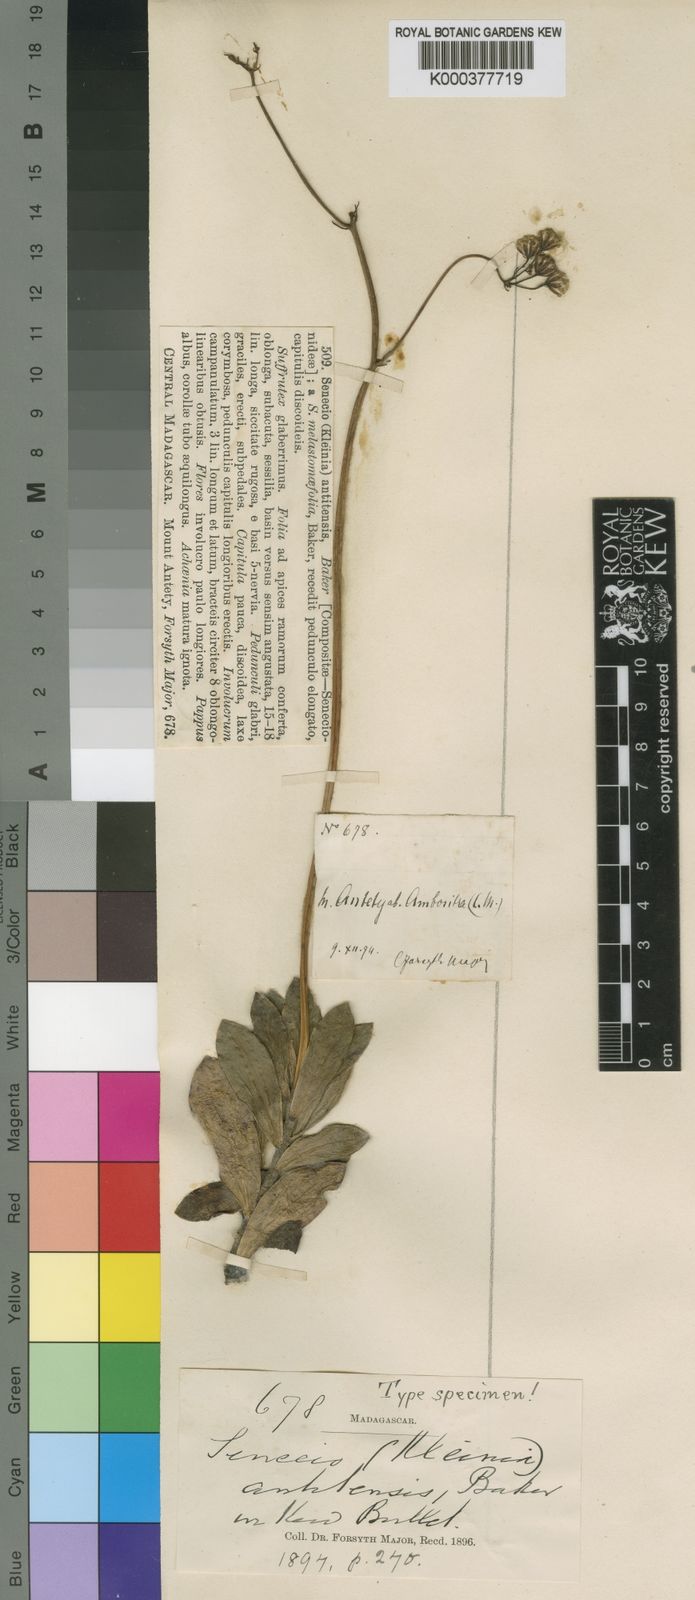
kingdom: Plantae
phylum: Tracheophyta
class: Magnoliopsida
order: Asterales
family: Asteraceae
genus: Kleinia
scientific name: Kleinia
